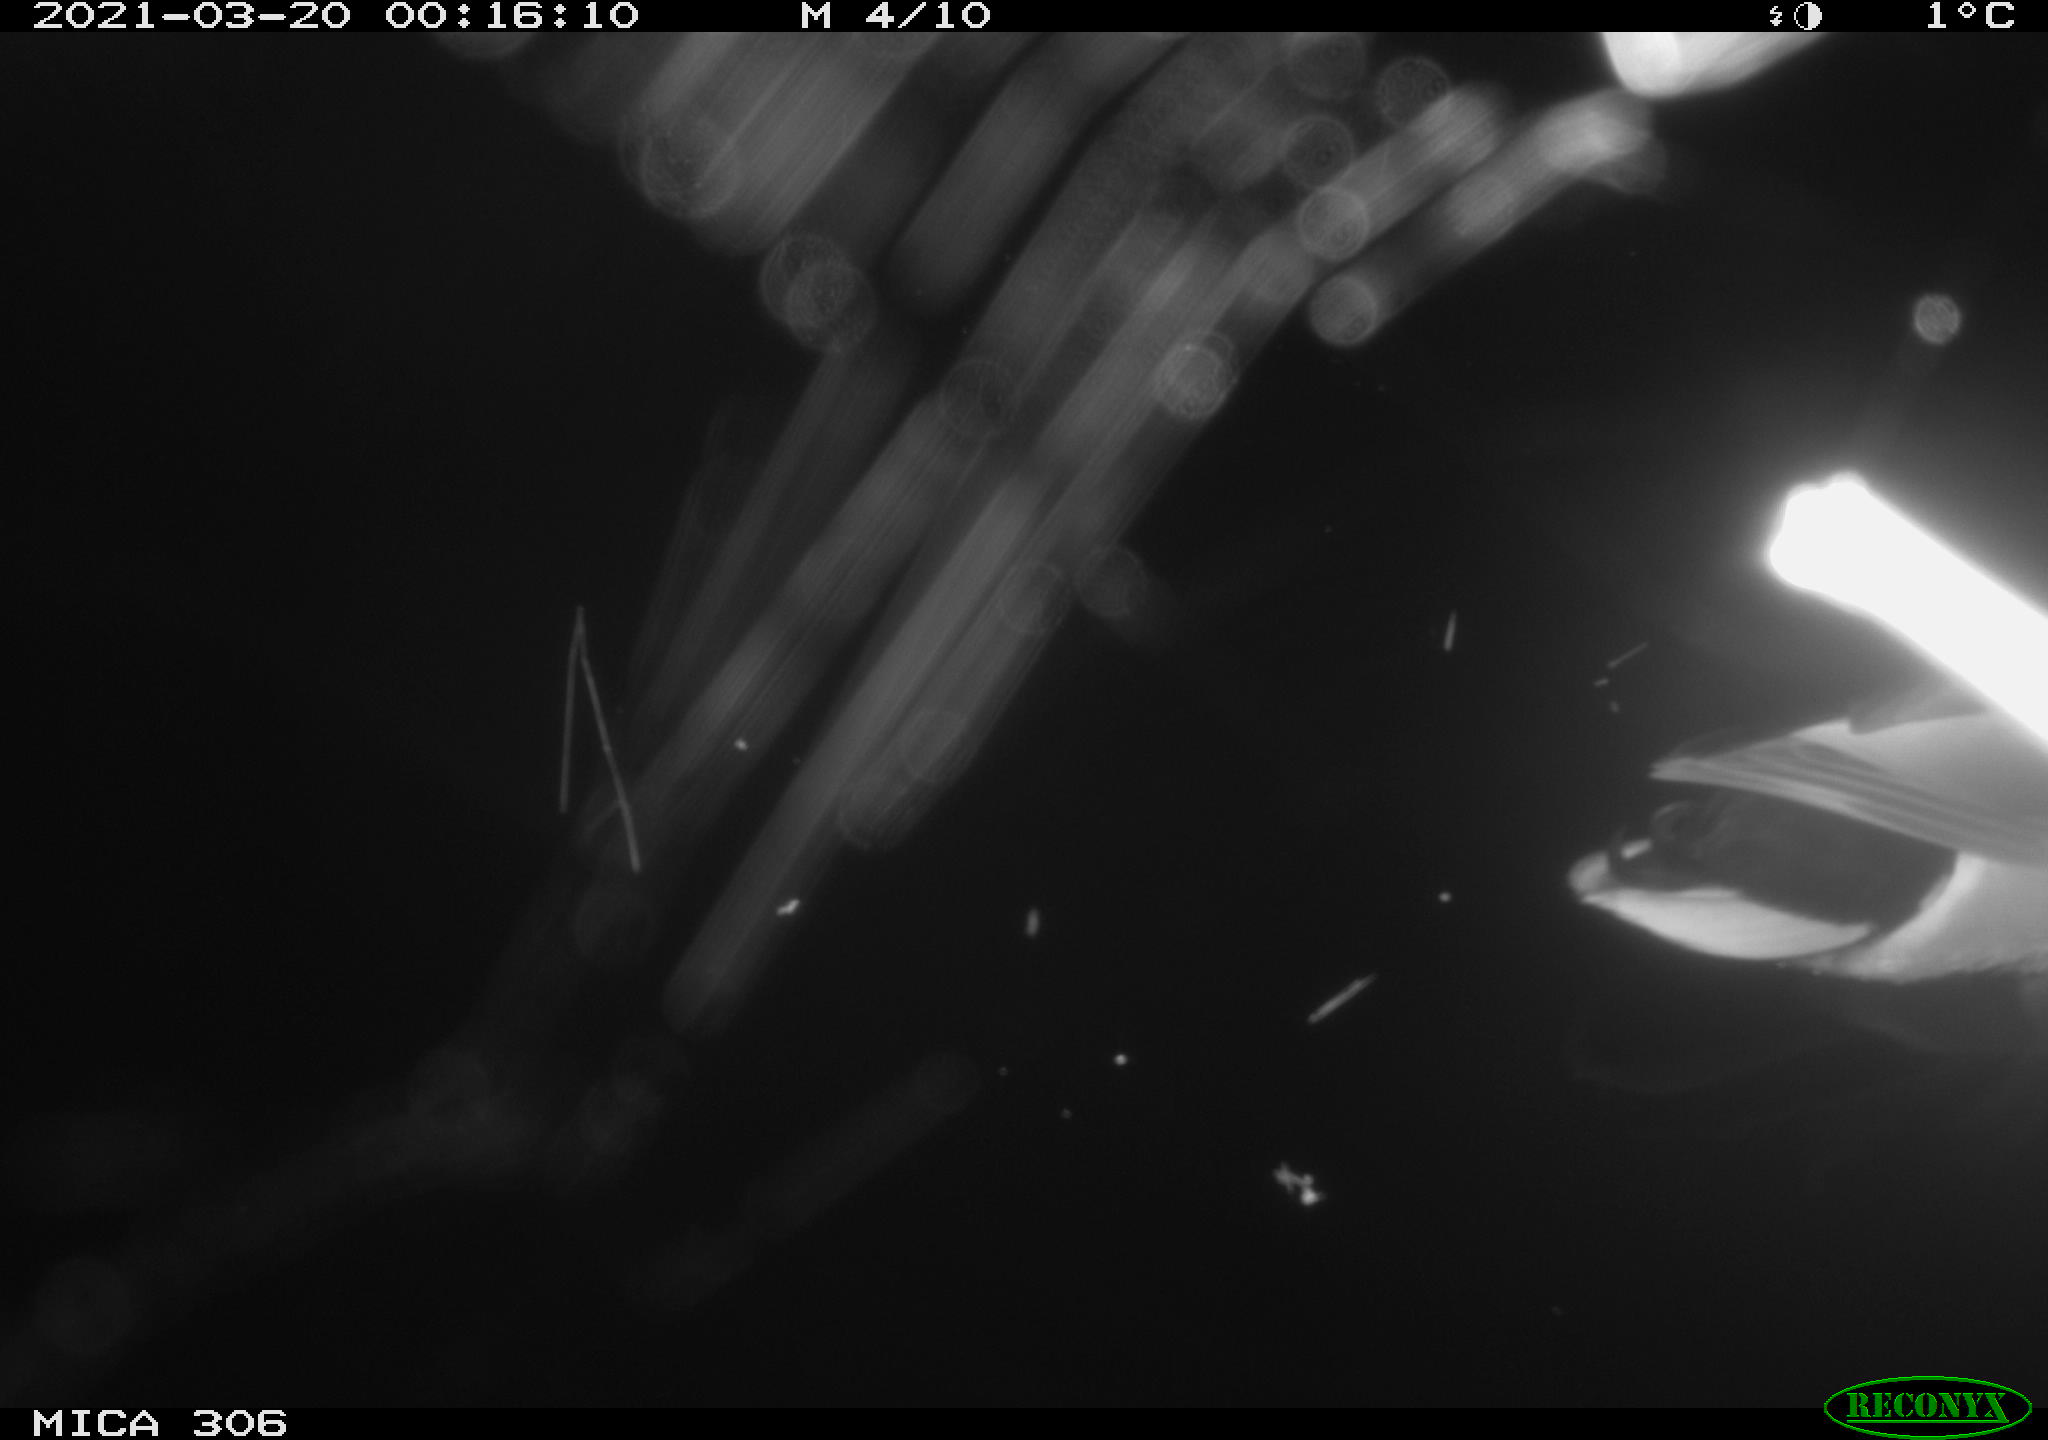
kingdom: Animalia
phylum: Chordata
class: Aves
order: Anseriformes
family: Anatidae
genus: Anas
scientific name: Anas platyrhynchos
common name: Mallard
